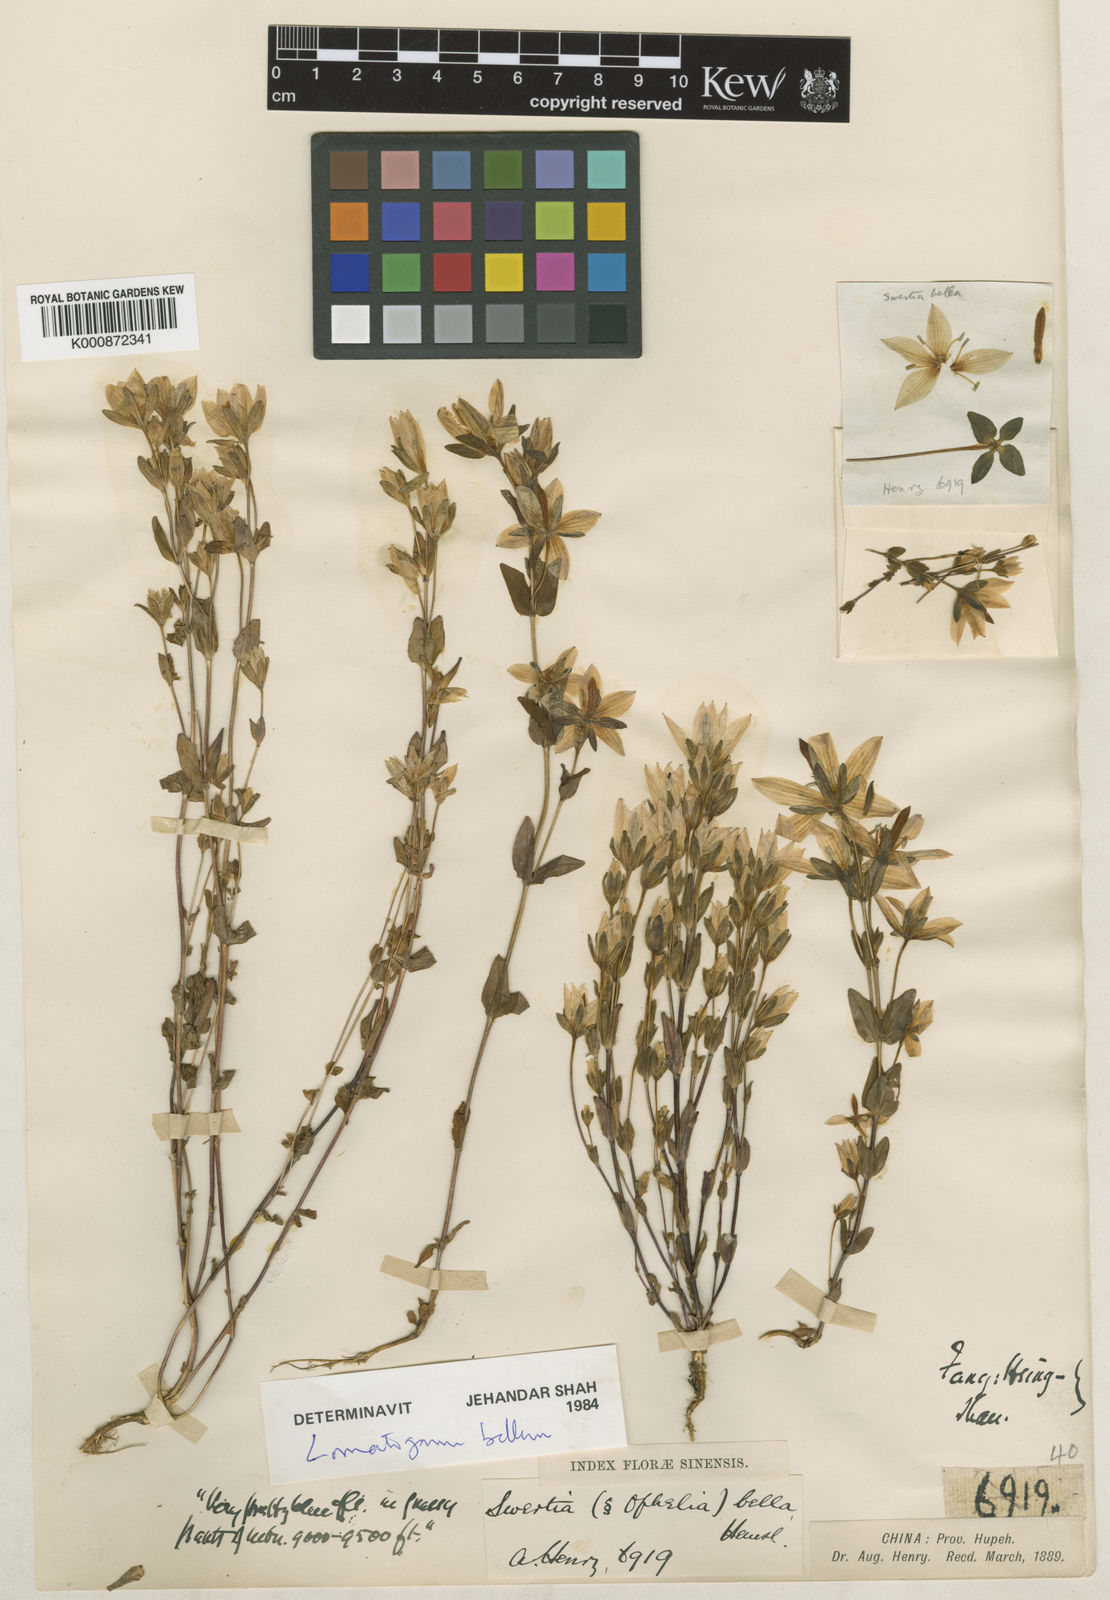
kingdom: Plantae
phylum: Tracheophyta
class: Magnoliopsida
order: Gentianales
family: Gentianaceae
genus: Lomatogonium
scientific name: Lomatogonium bellum
